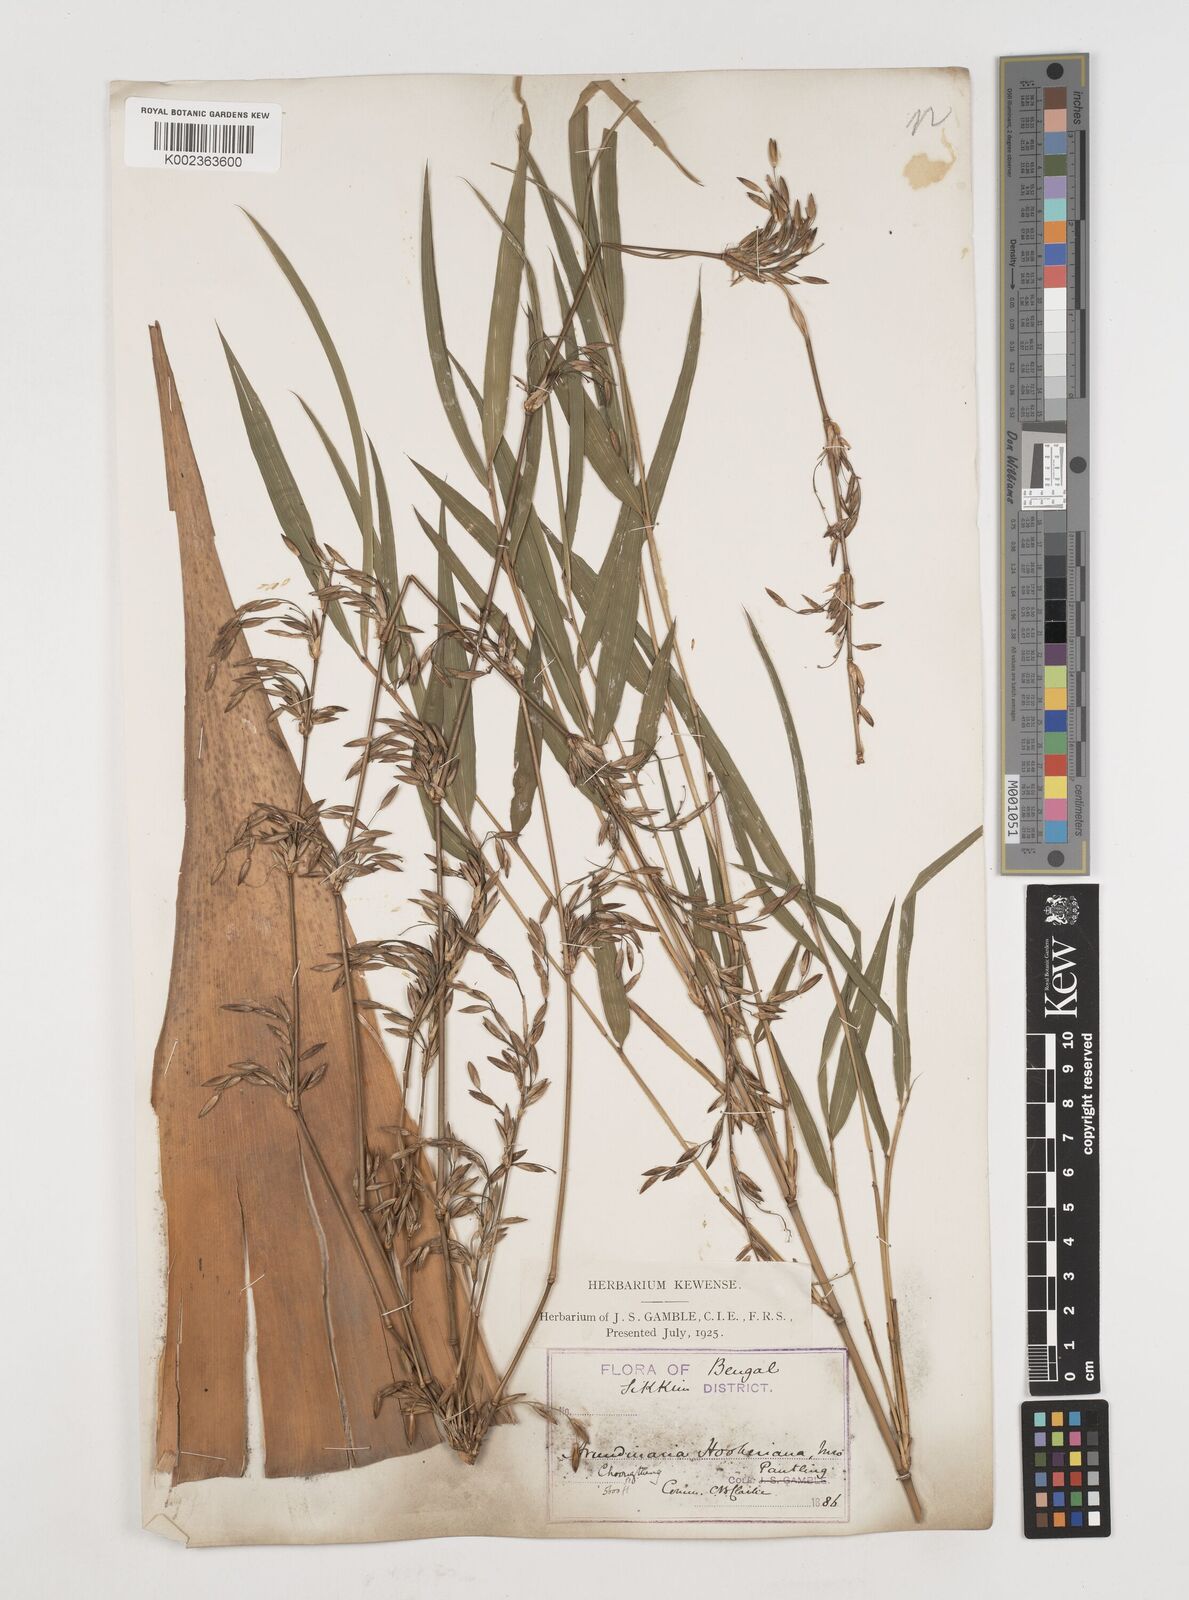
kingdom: Plantae
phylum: Tracheophyta
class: Liliopsida
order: Poales
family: Poaceae
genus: Himalayacalamus
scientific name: Himalayacalamus hookerianus
